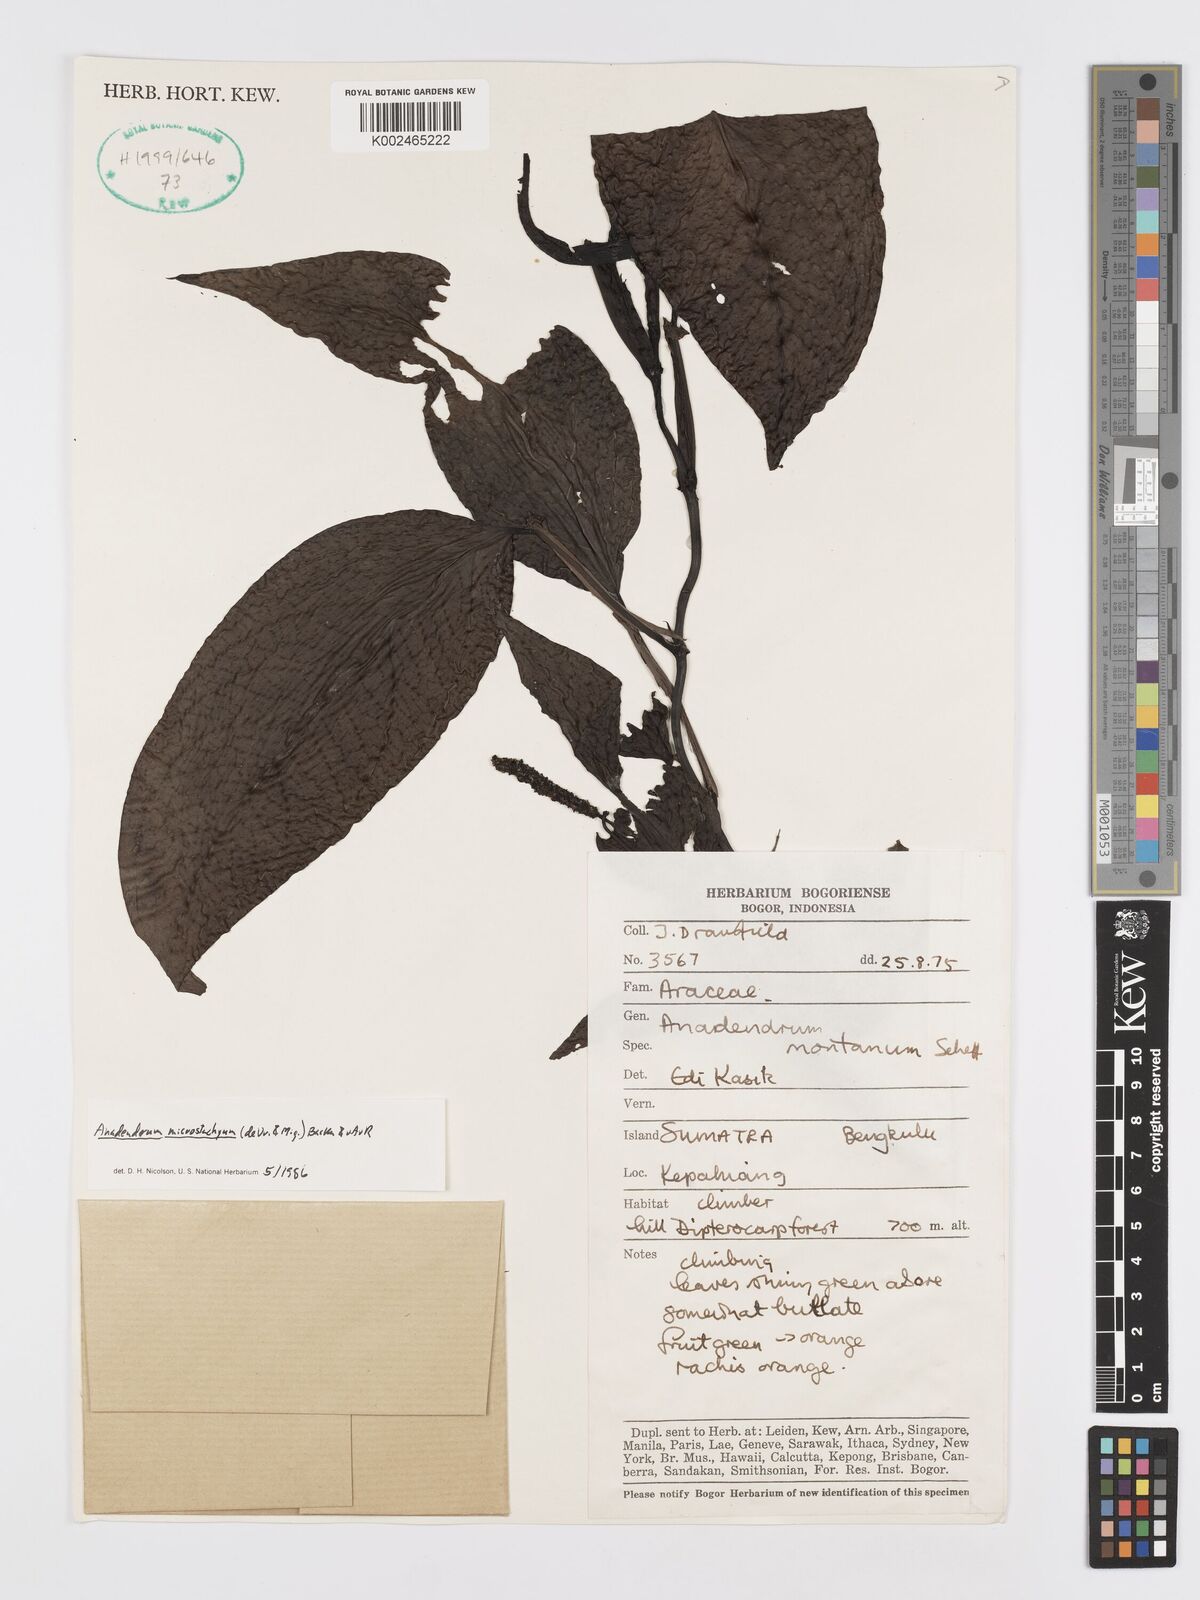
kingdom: Plantae
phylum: Tracheophyta
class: Liliopsida
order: Alismatales
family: Araceae
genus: Anadendrum
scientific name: Anadendrum microstachyum
